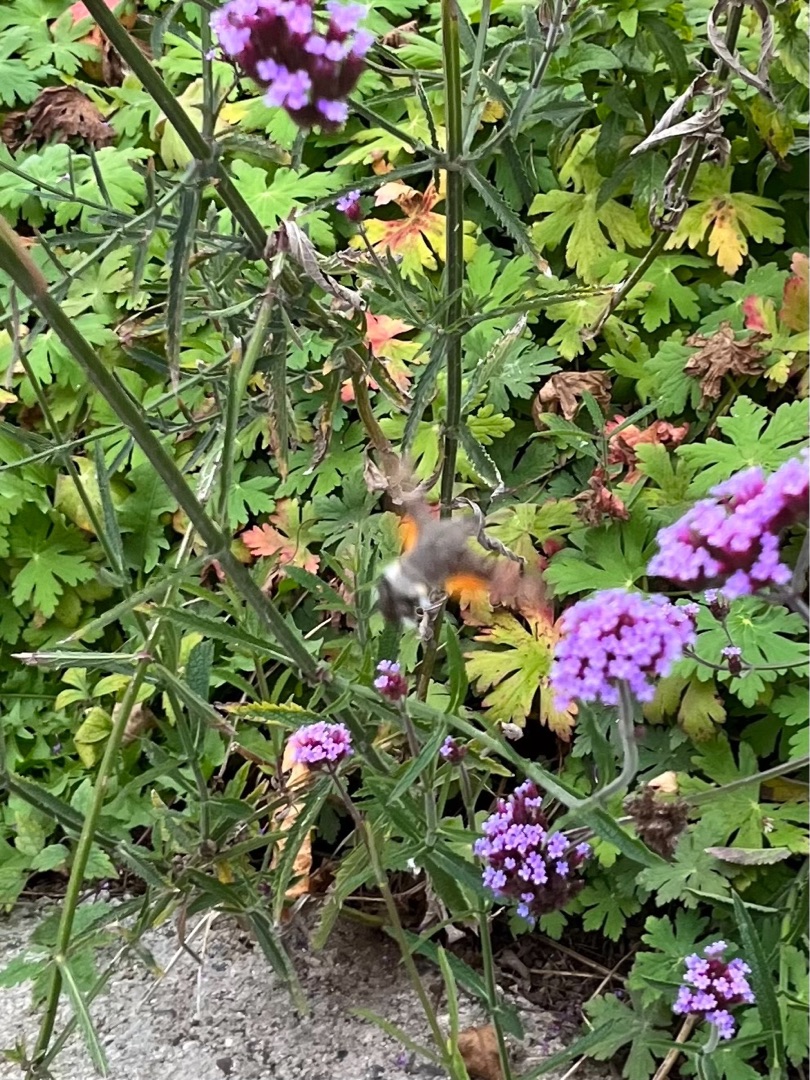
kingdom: Animalia
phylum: Arthropoda
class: Insecta
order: Lepidoptera
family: Sphingidae
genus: Macroglossum
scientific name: Macroglossum stellatarum
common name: Duehale
